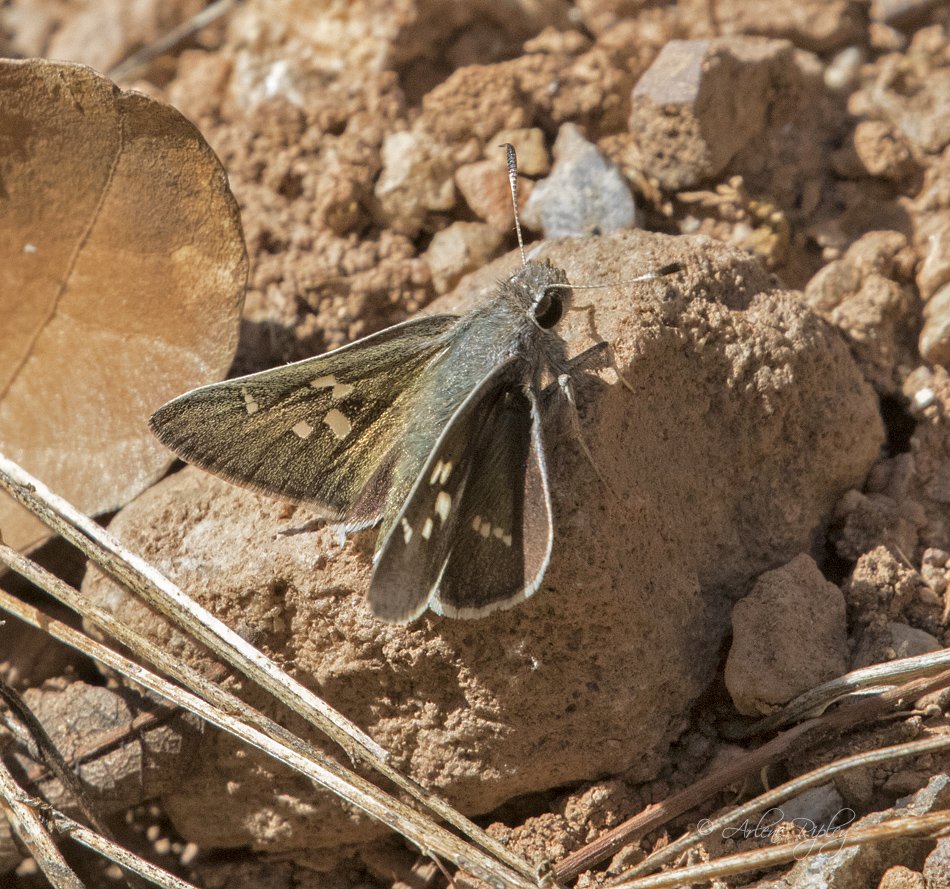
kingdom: Animalia
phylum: Arthropoda
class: Insecta
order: Lepidoptera
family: Hesperiidae
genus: Atrytonopsis
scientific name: Atrytonopsis pittacus
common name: White-barred Skipper
